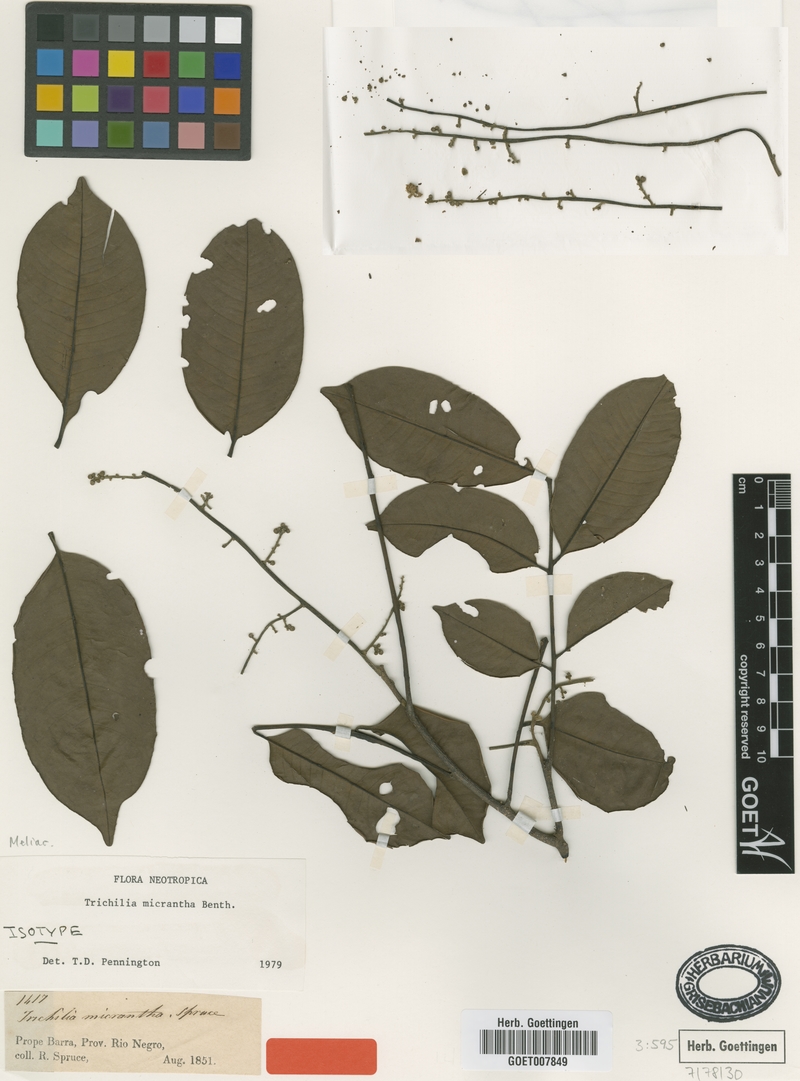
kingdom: Plantae
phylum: Tracheophyta
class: Magnoliopsida
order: Sapindales
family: Meliaceae
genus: Trichilia
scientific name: Trichilia micrantha
